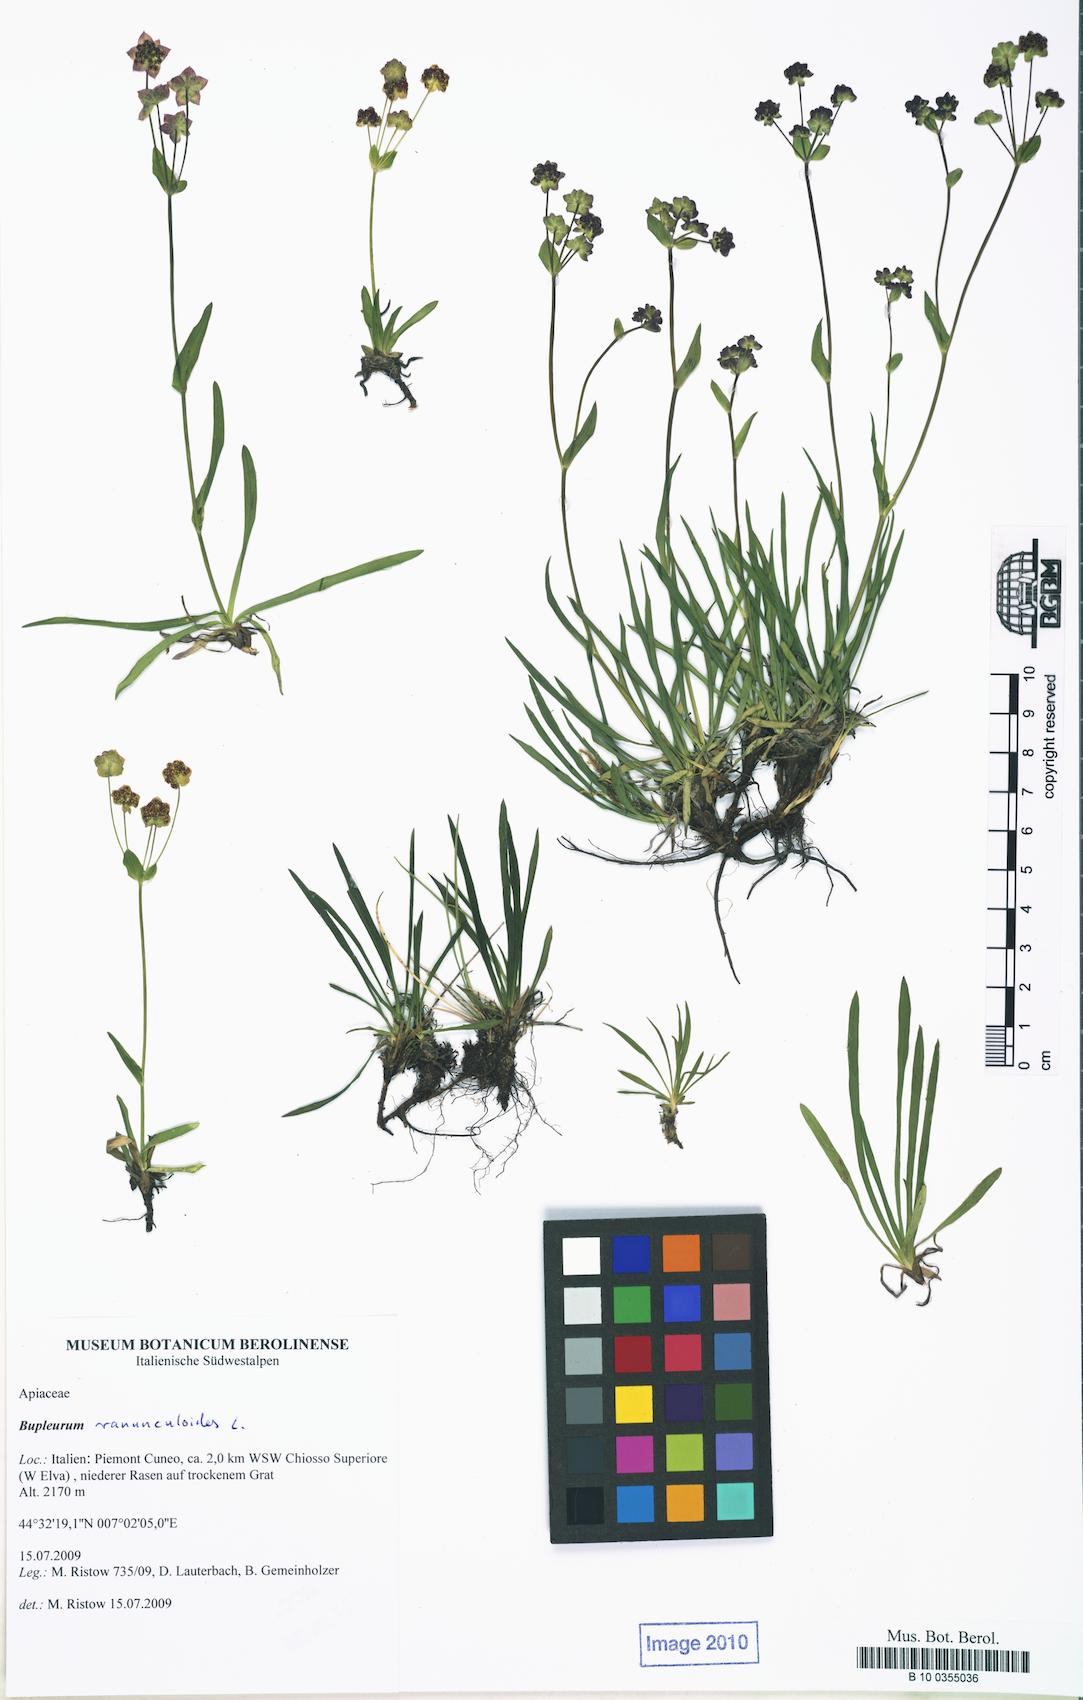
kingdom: Plantae
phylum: Tracheophyta
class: Magnoliopsida
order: Apiales
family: Apiaceae
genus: Bupleurum
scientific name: Bupleurum ranunculoides
